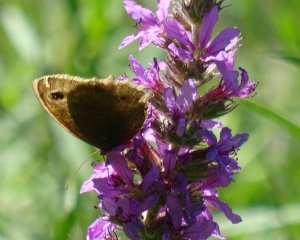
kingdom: Animalia
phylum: Arthropoda
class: Insecta
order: Lepidoptera
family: Nymphalidae
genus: Cercyonis
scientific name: Cercyonis pegala
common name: Common Wood-Nymph
